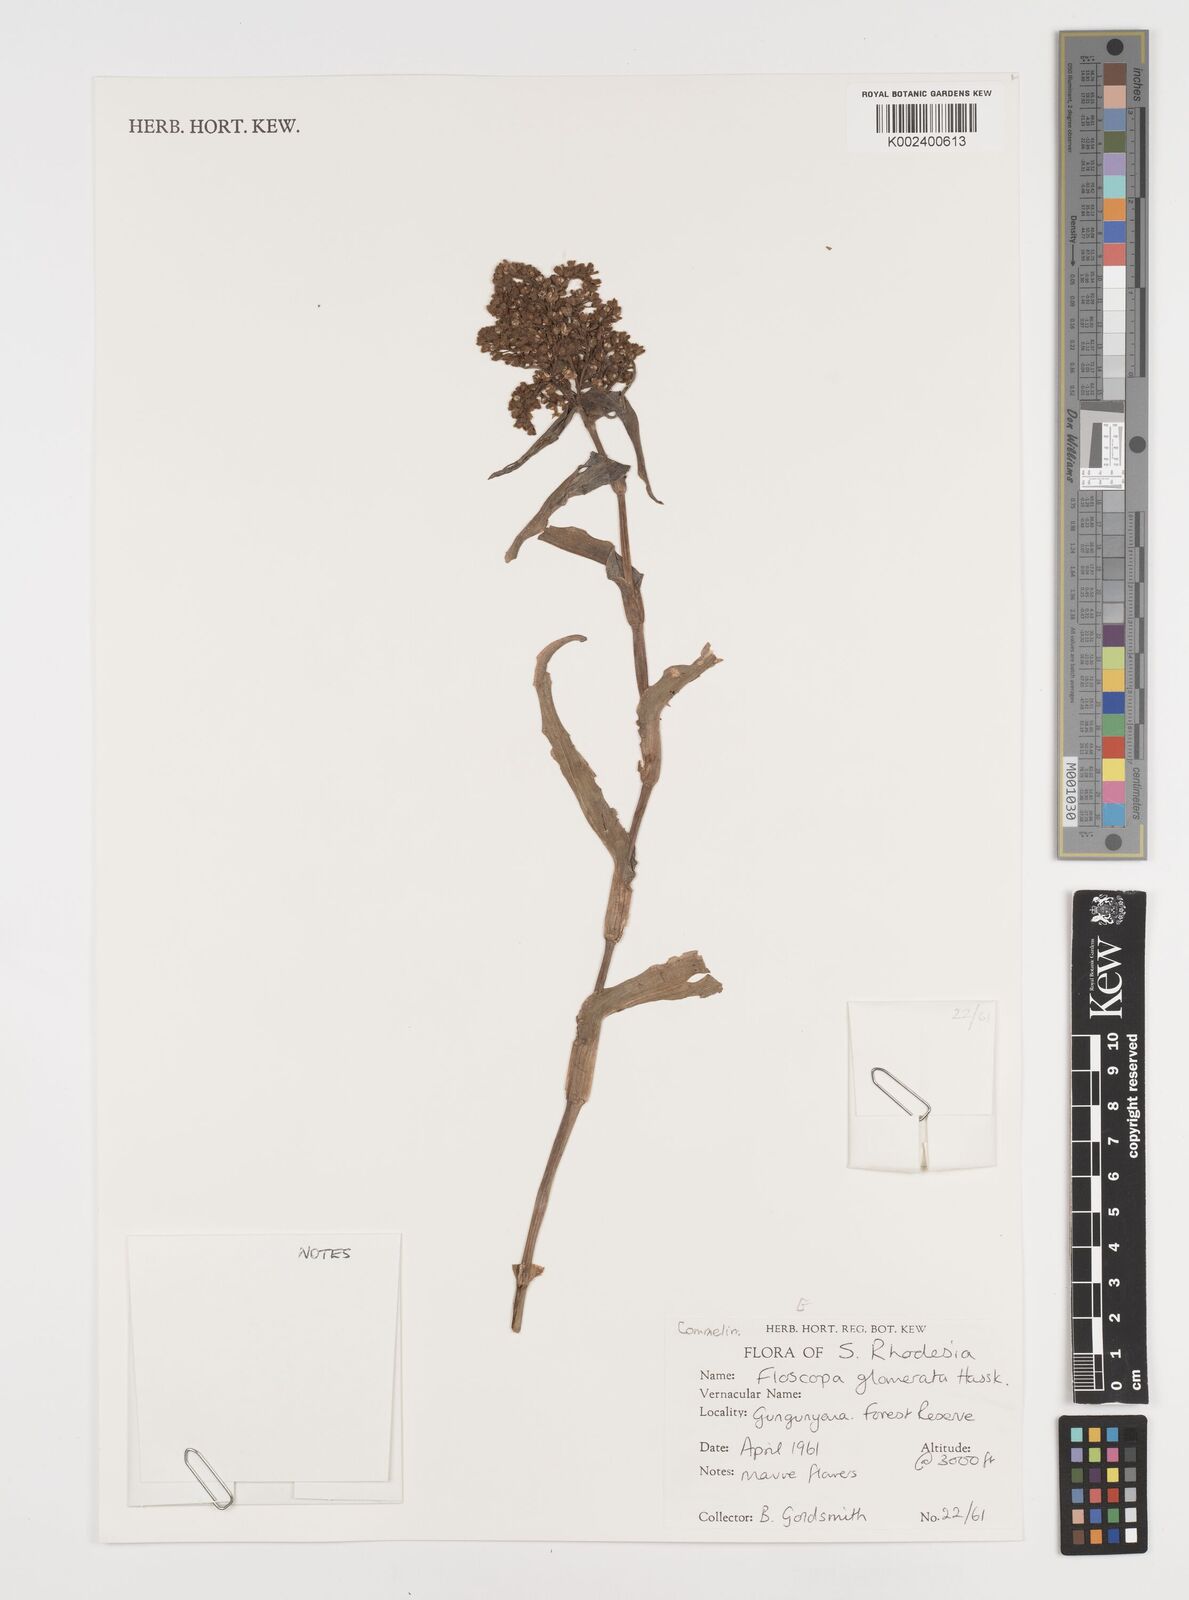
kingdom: Plantae
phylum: Tracheophyta
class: Liliopsida
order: Commelinales
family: Commelinaceae
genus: Floscopa
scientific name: Floscopa glomerata
